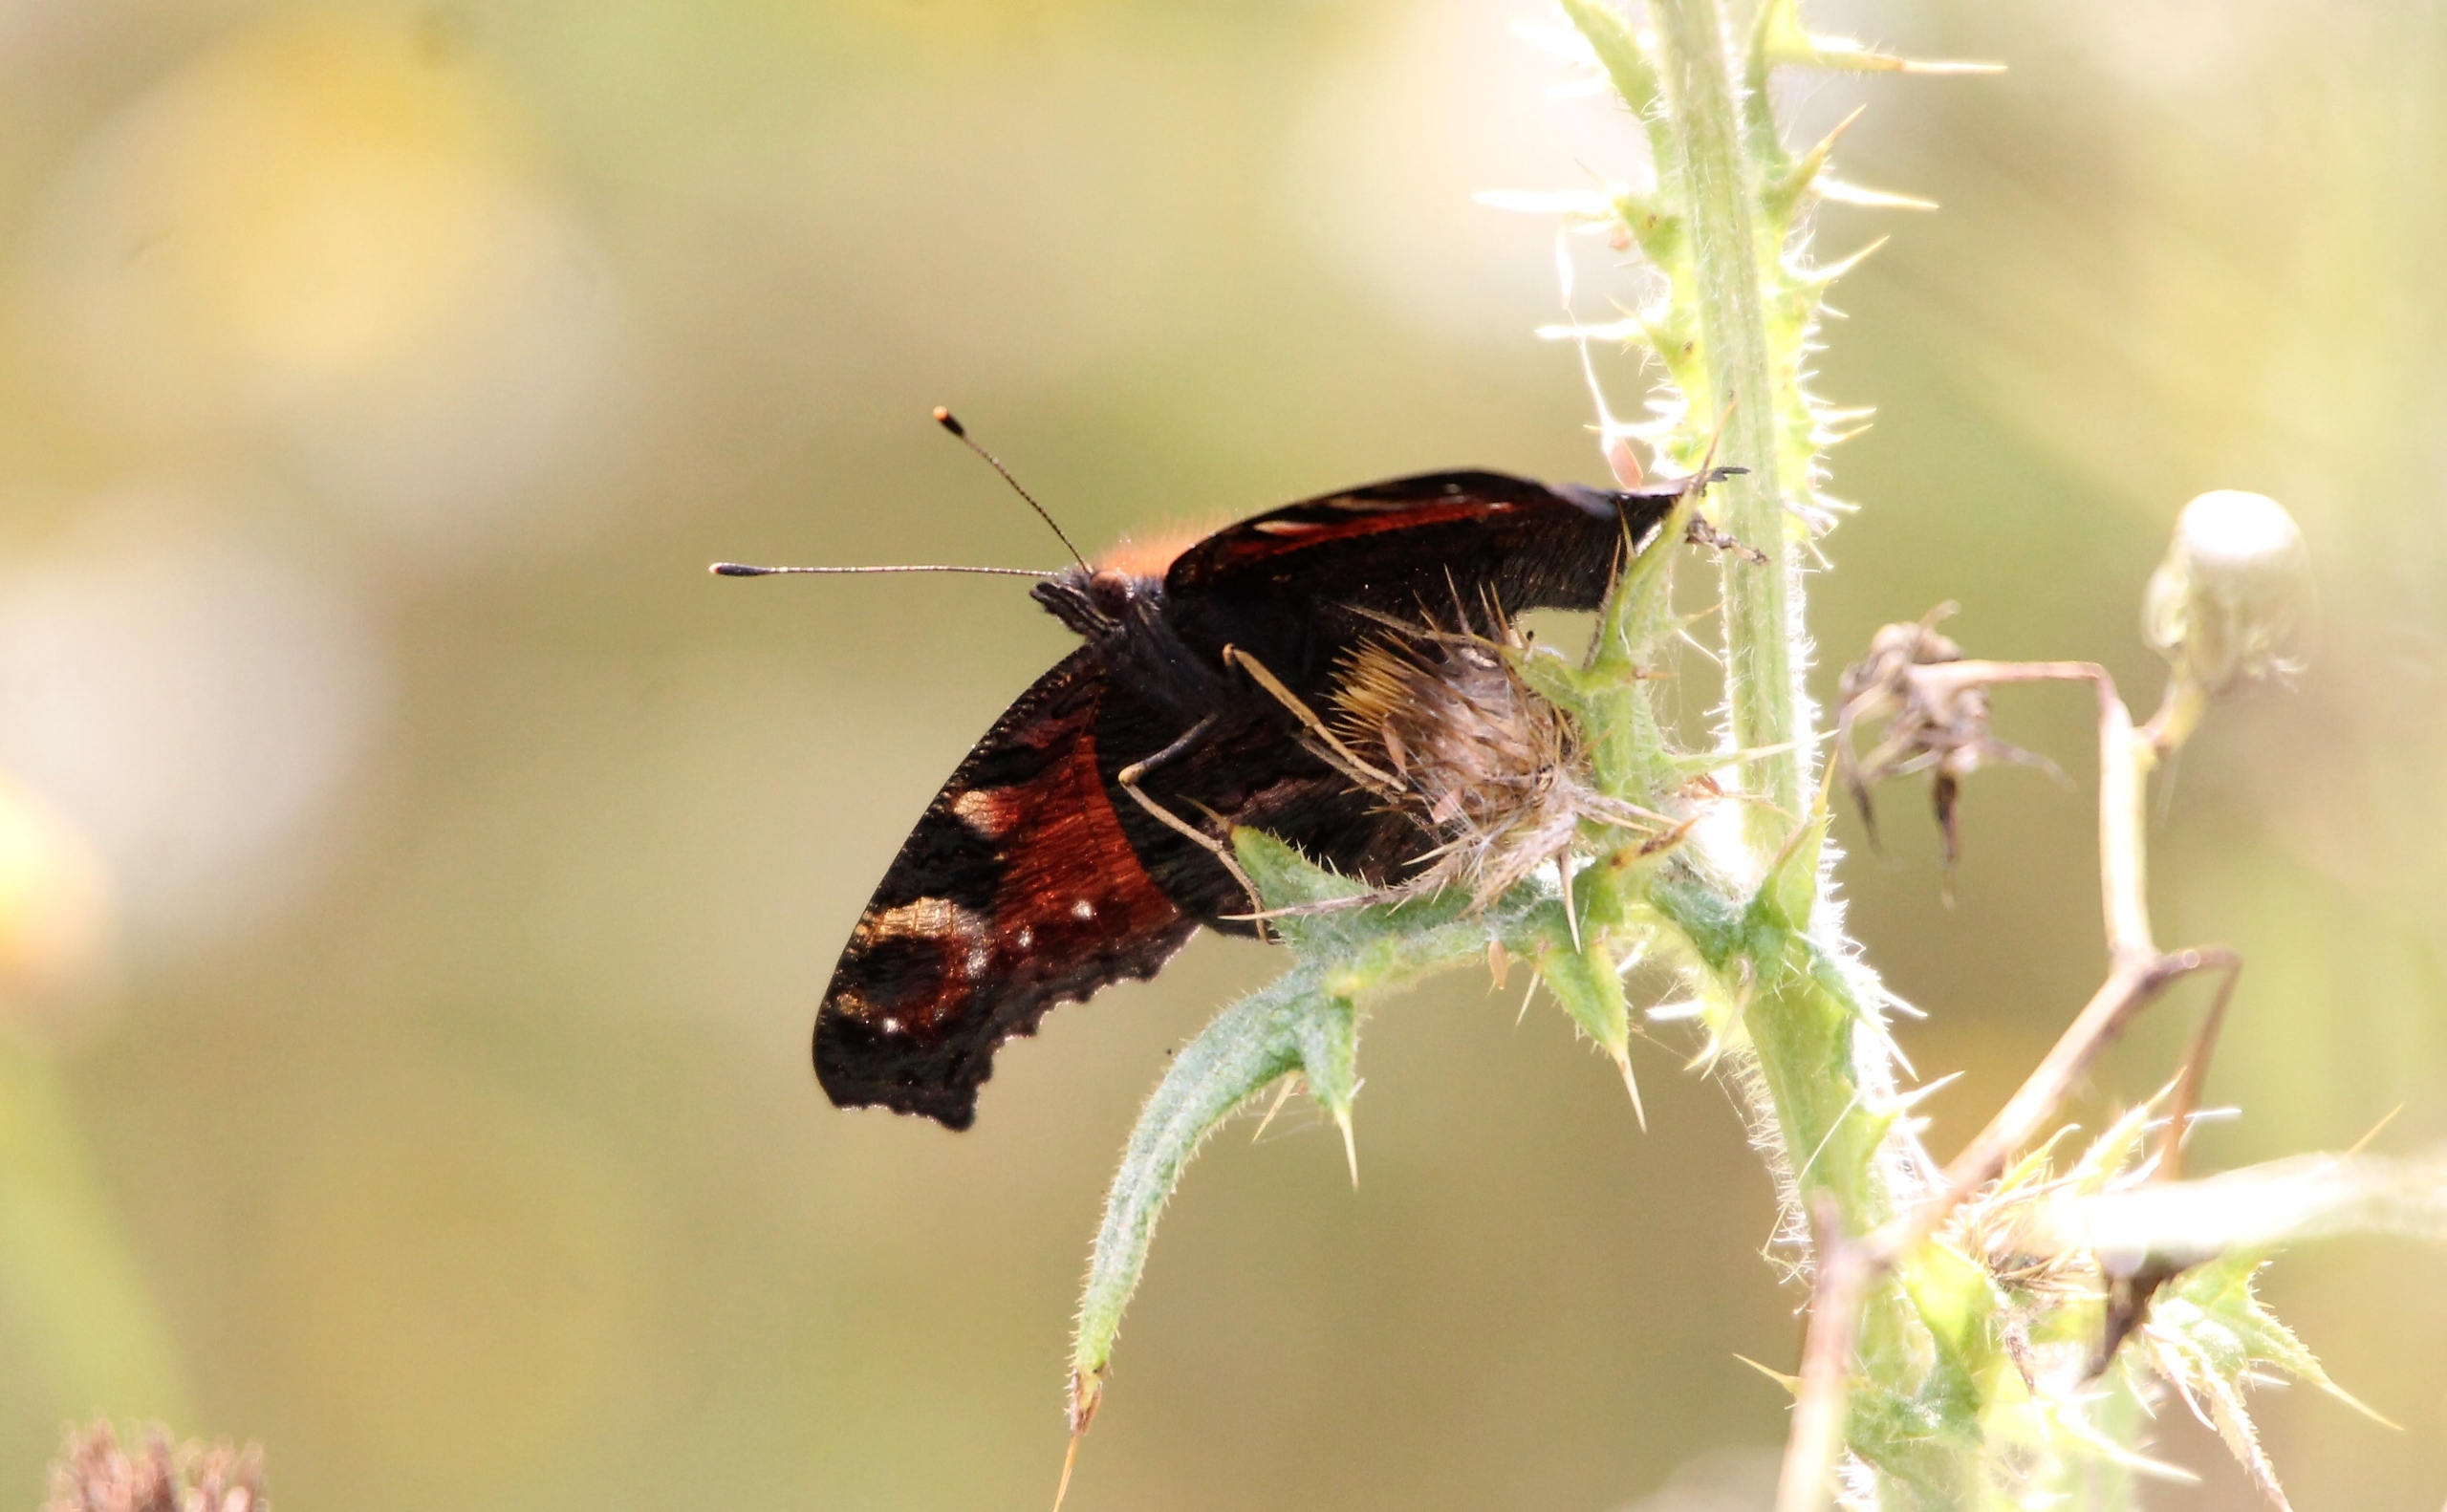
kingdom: Animalia
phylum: Arthropoda
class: Insecta
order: Lepidoptera
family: Nymphalidae
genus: Aglais
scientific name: Aglais io
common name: Dagpåfugleøje
